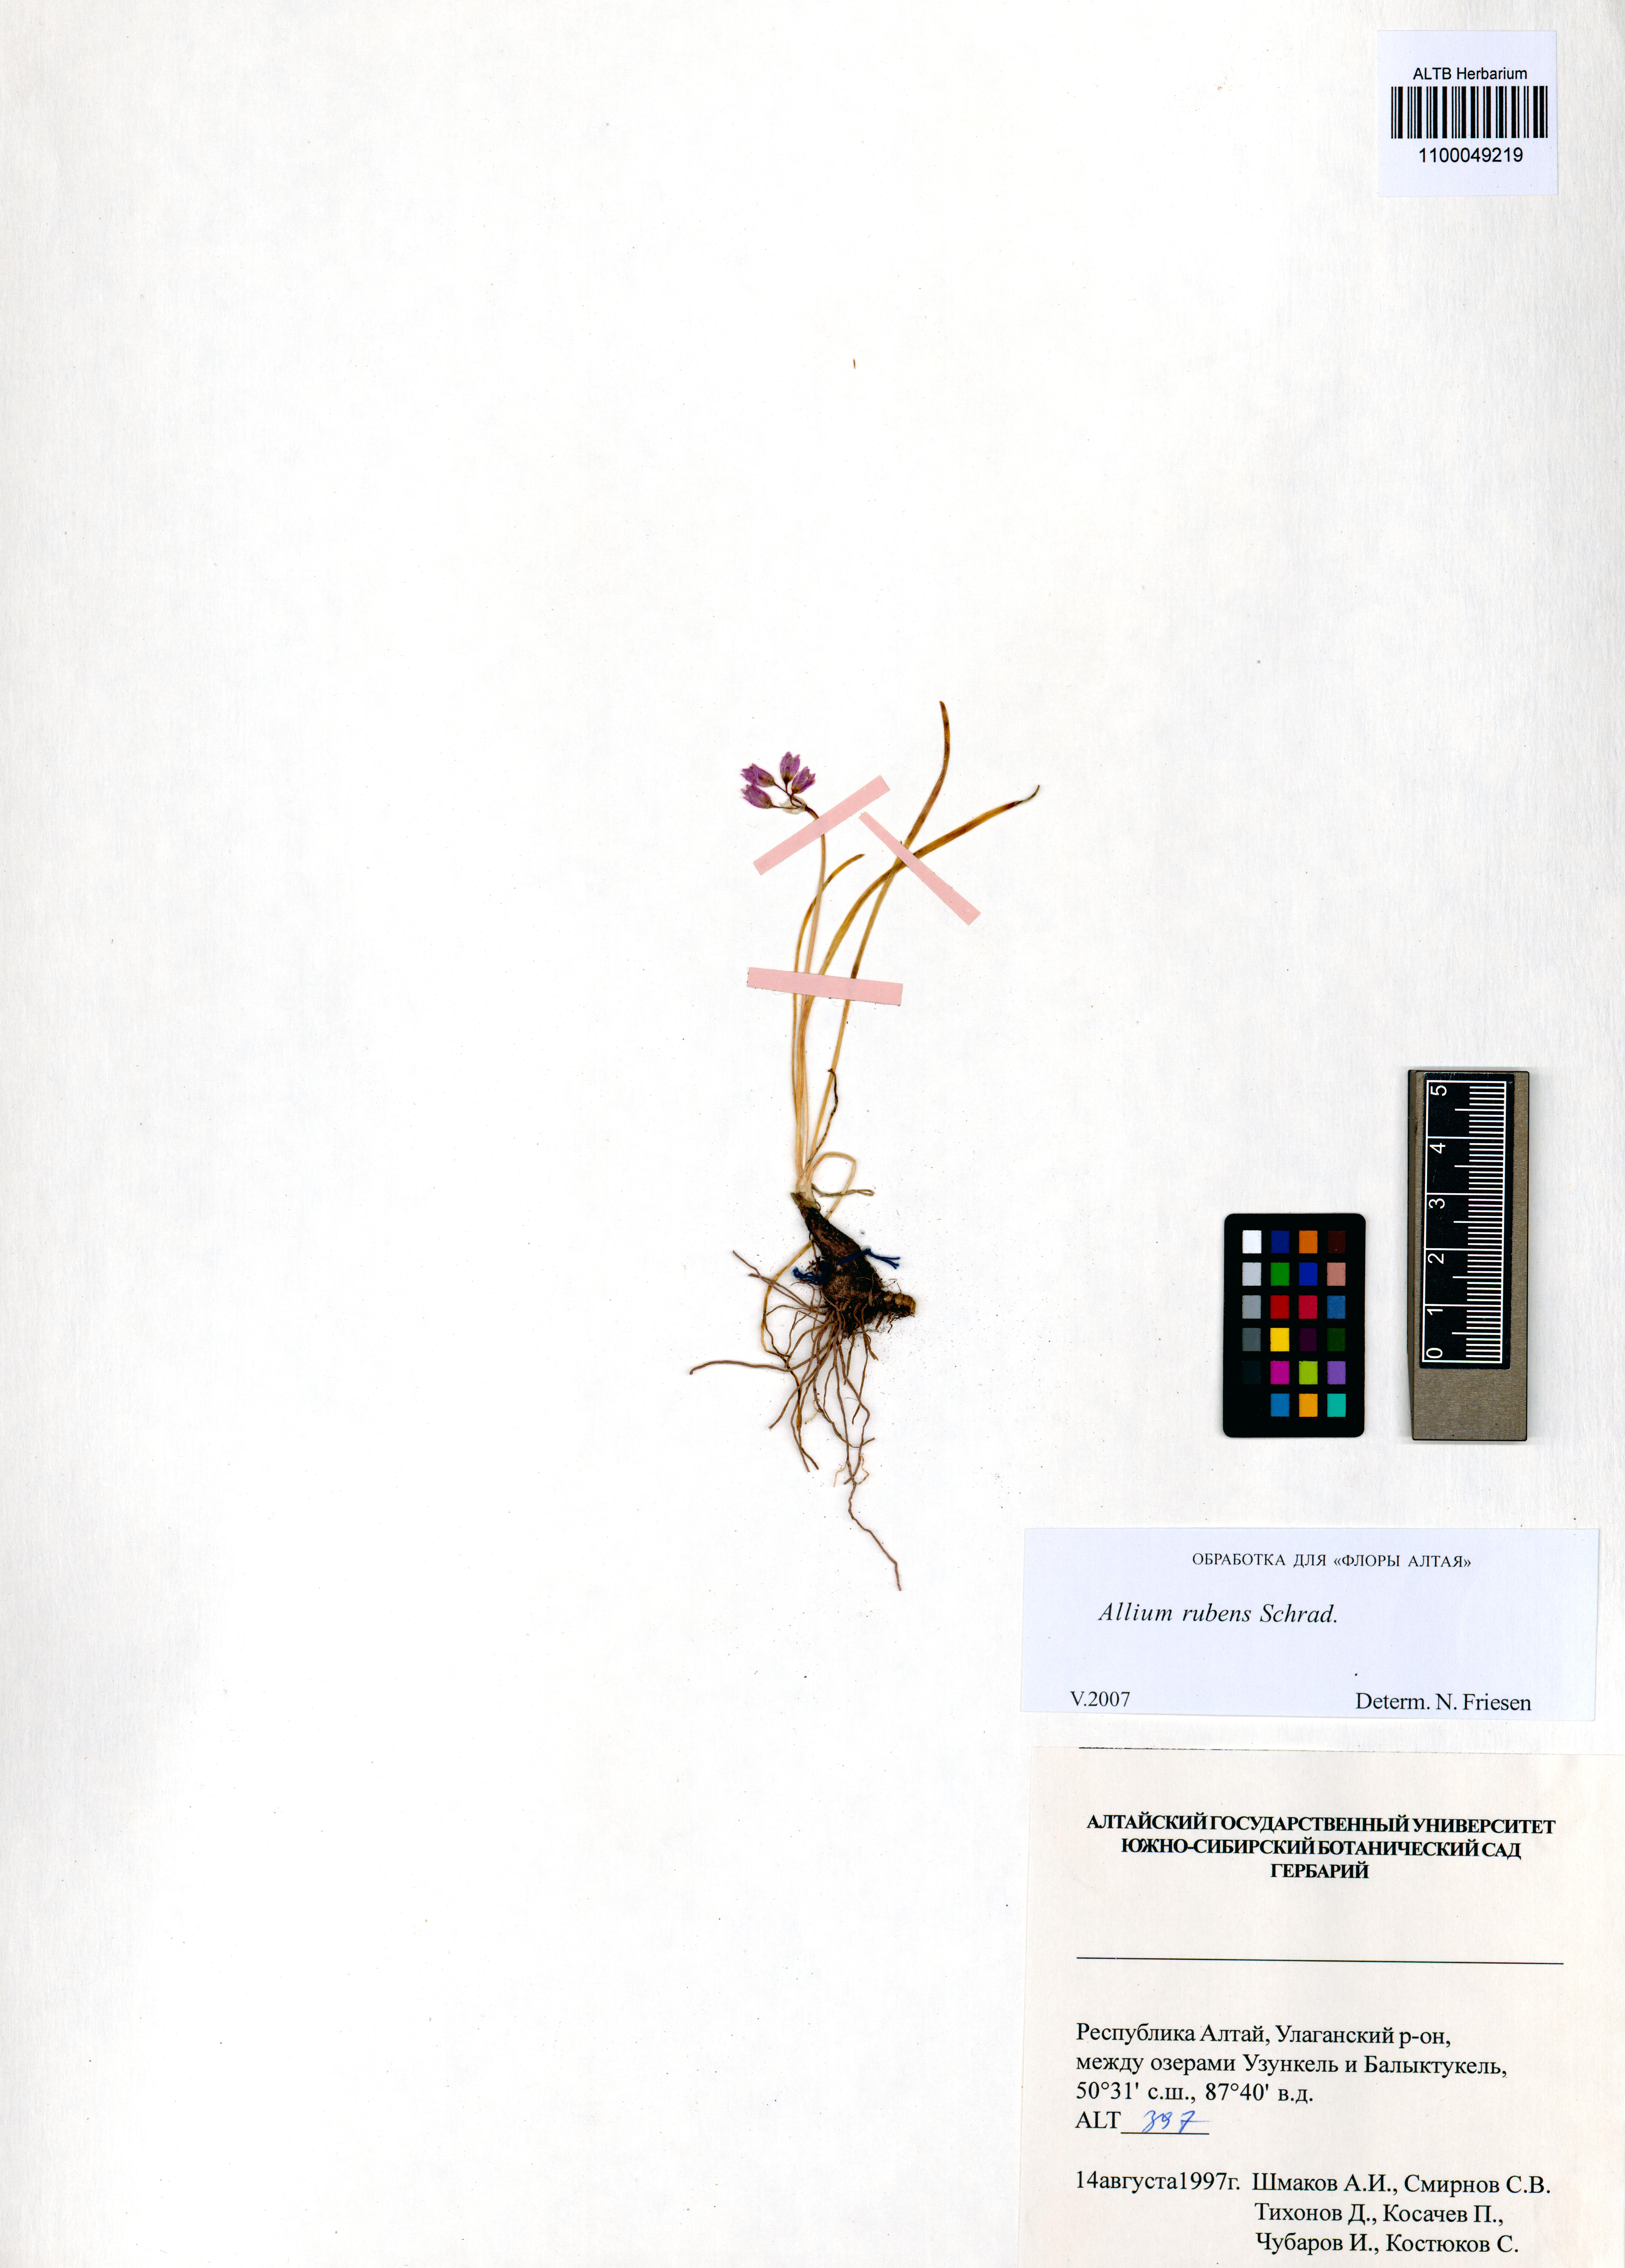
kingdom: Plantae
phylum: Tracheophyta
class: Liliopsida
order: Asparagales
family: Amaryllidaceae
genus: Allium
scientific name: Allium rubens
